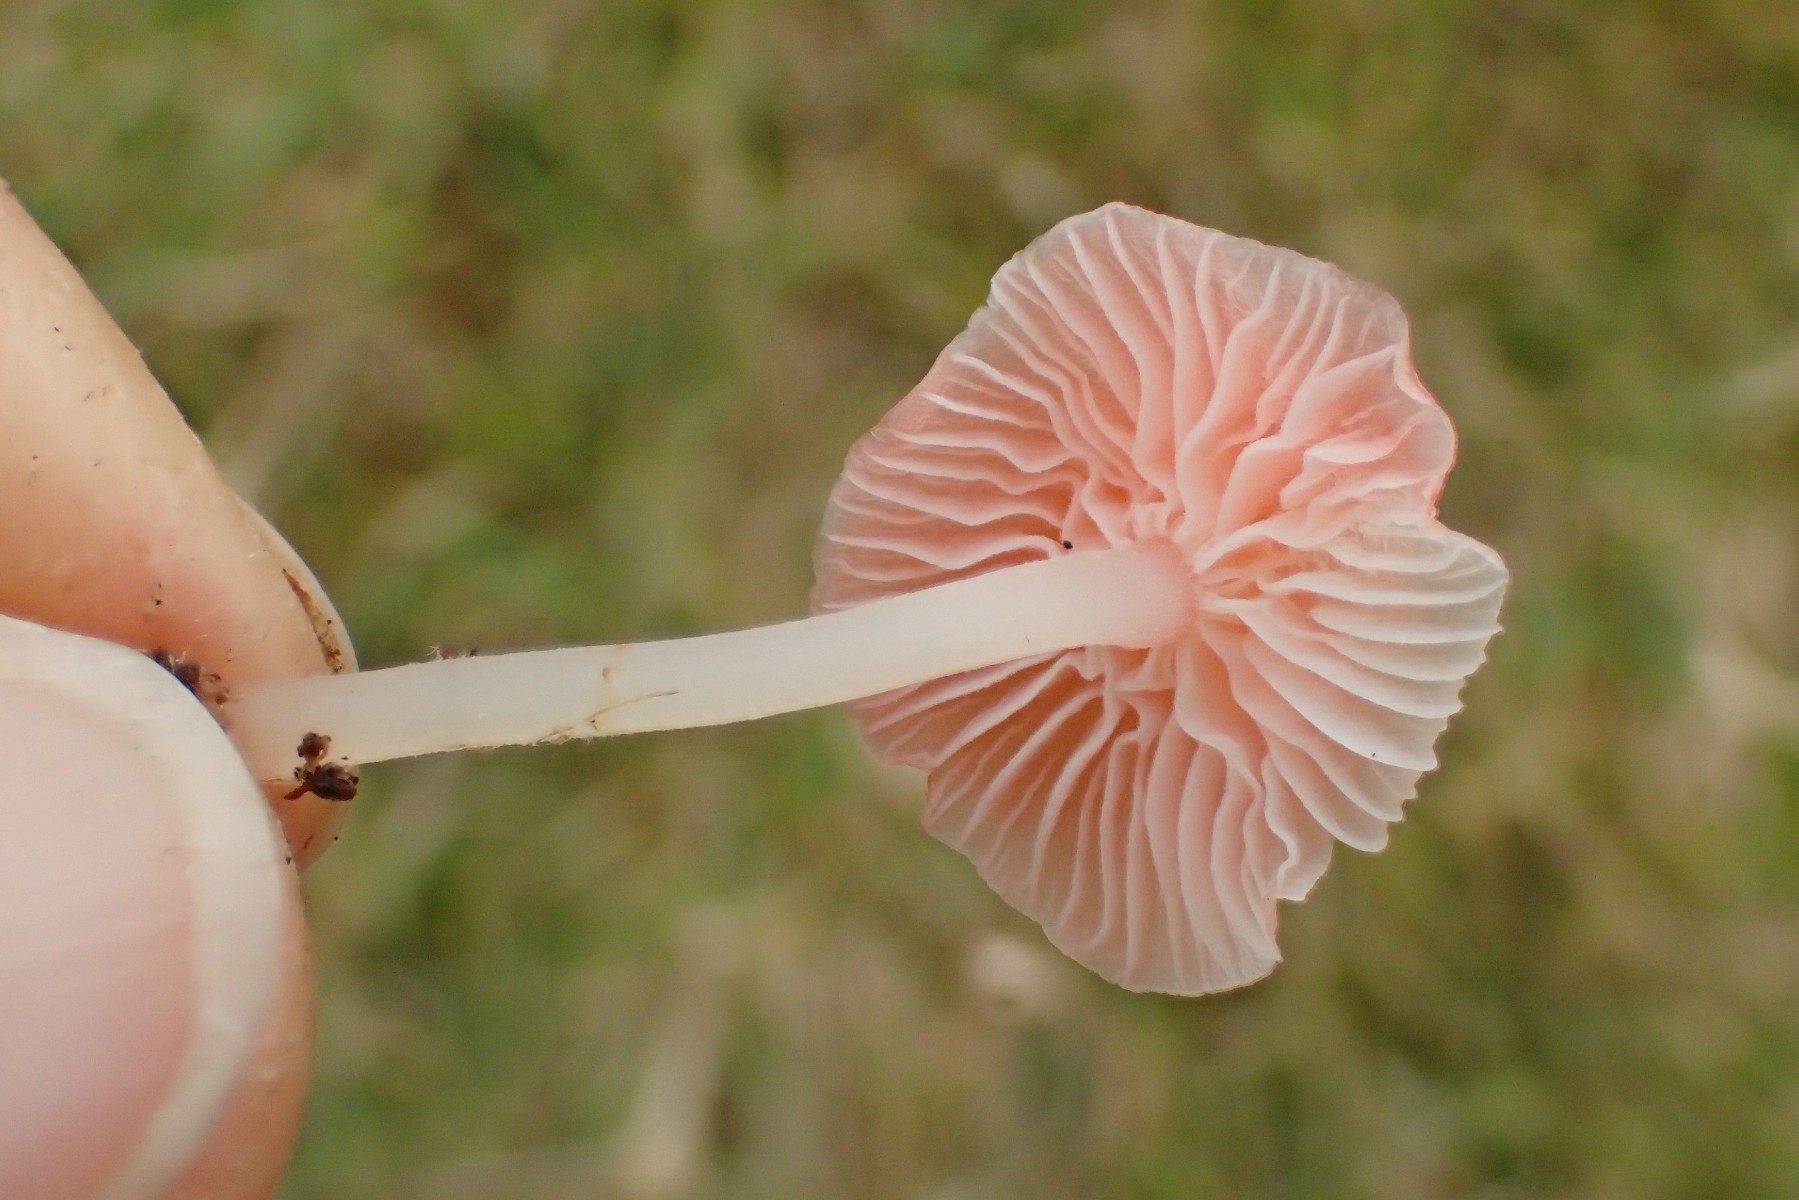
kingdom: Fungi
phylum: Basidiomycota
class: Agaricomycetes
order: Agaricales
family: Mycenaceae
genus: Atheniella
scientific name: Atheniella adonis
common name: rønnerød huesvamp
